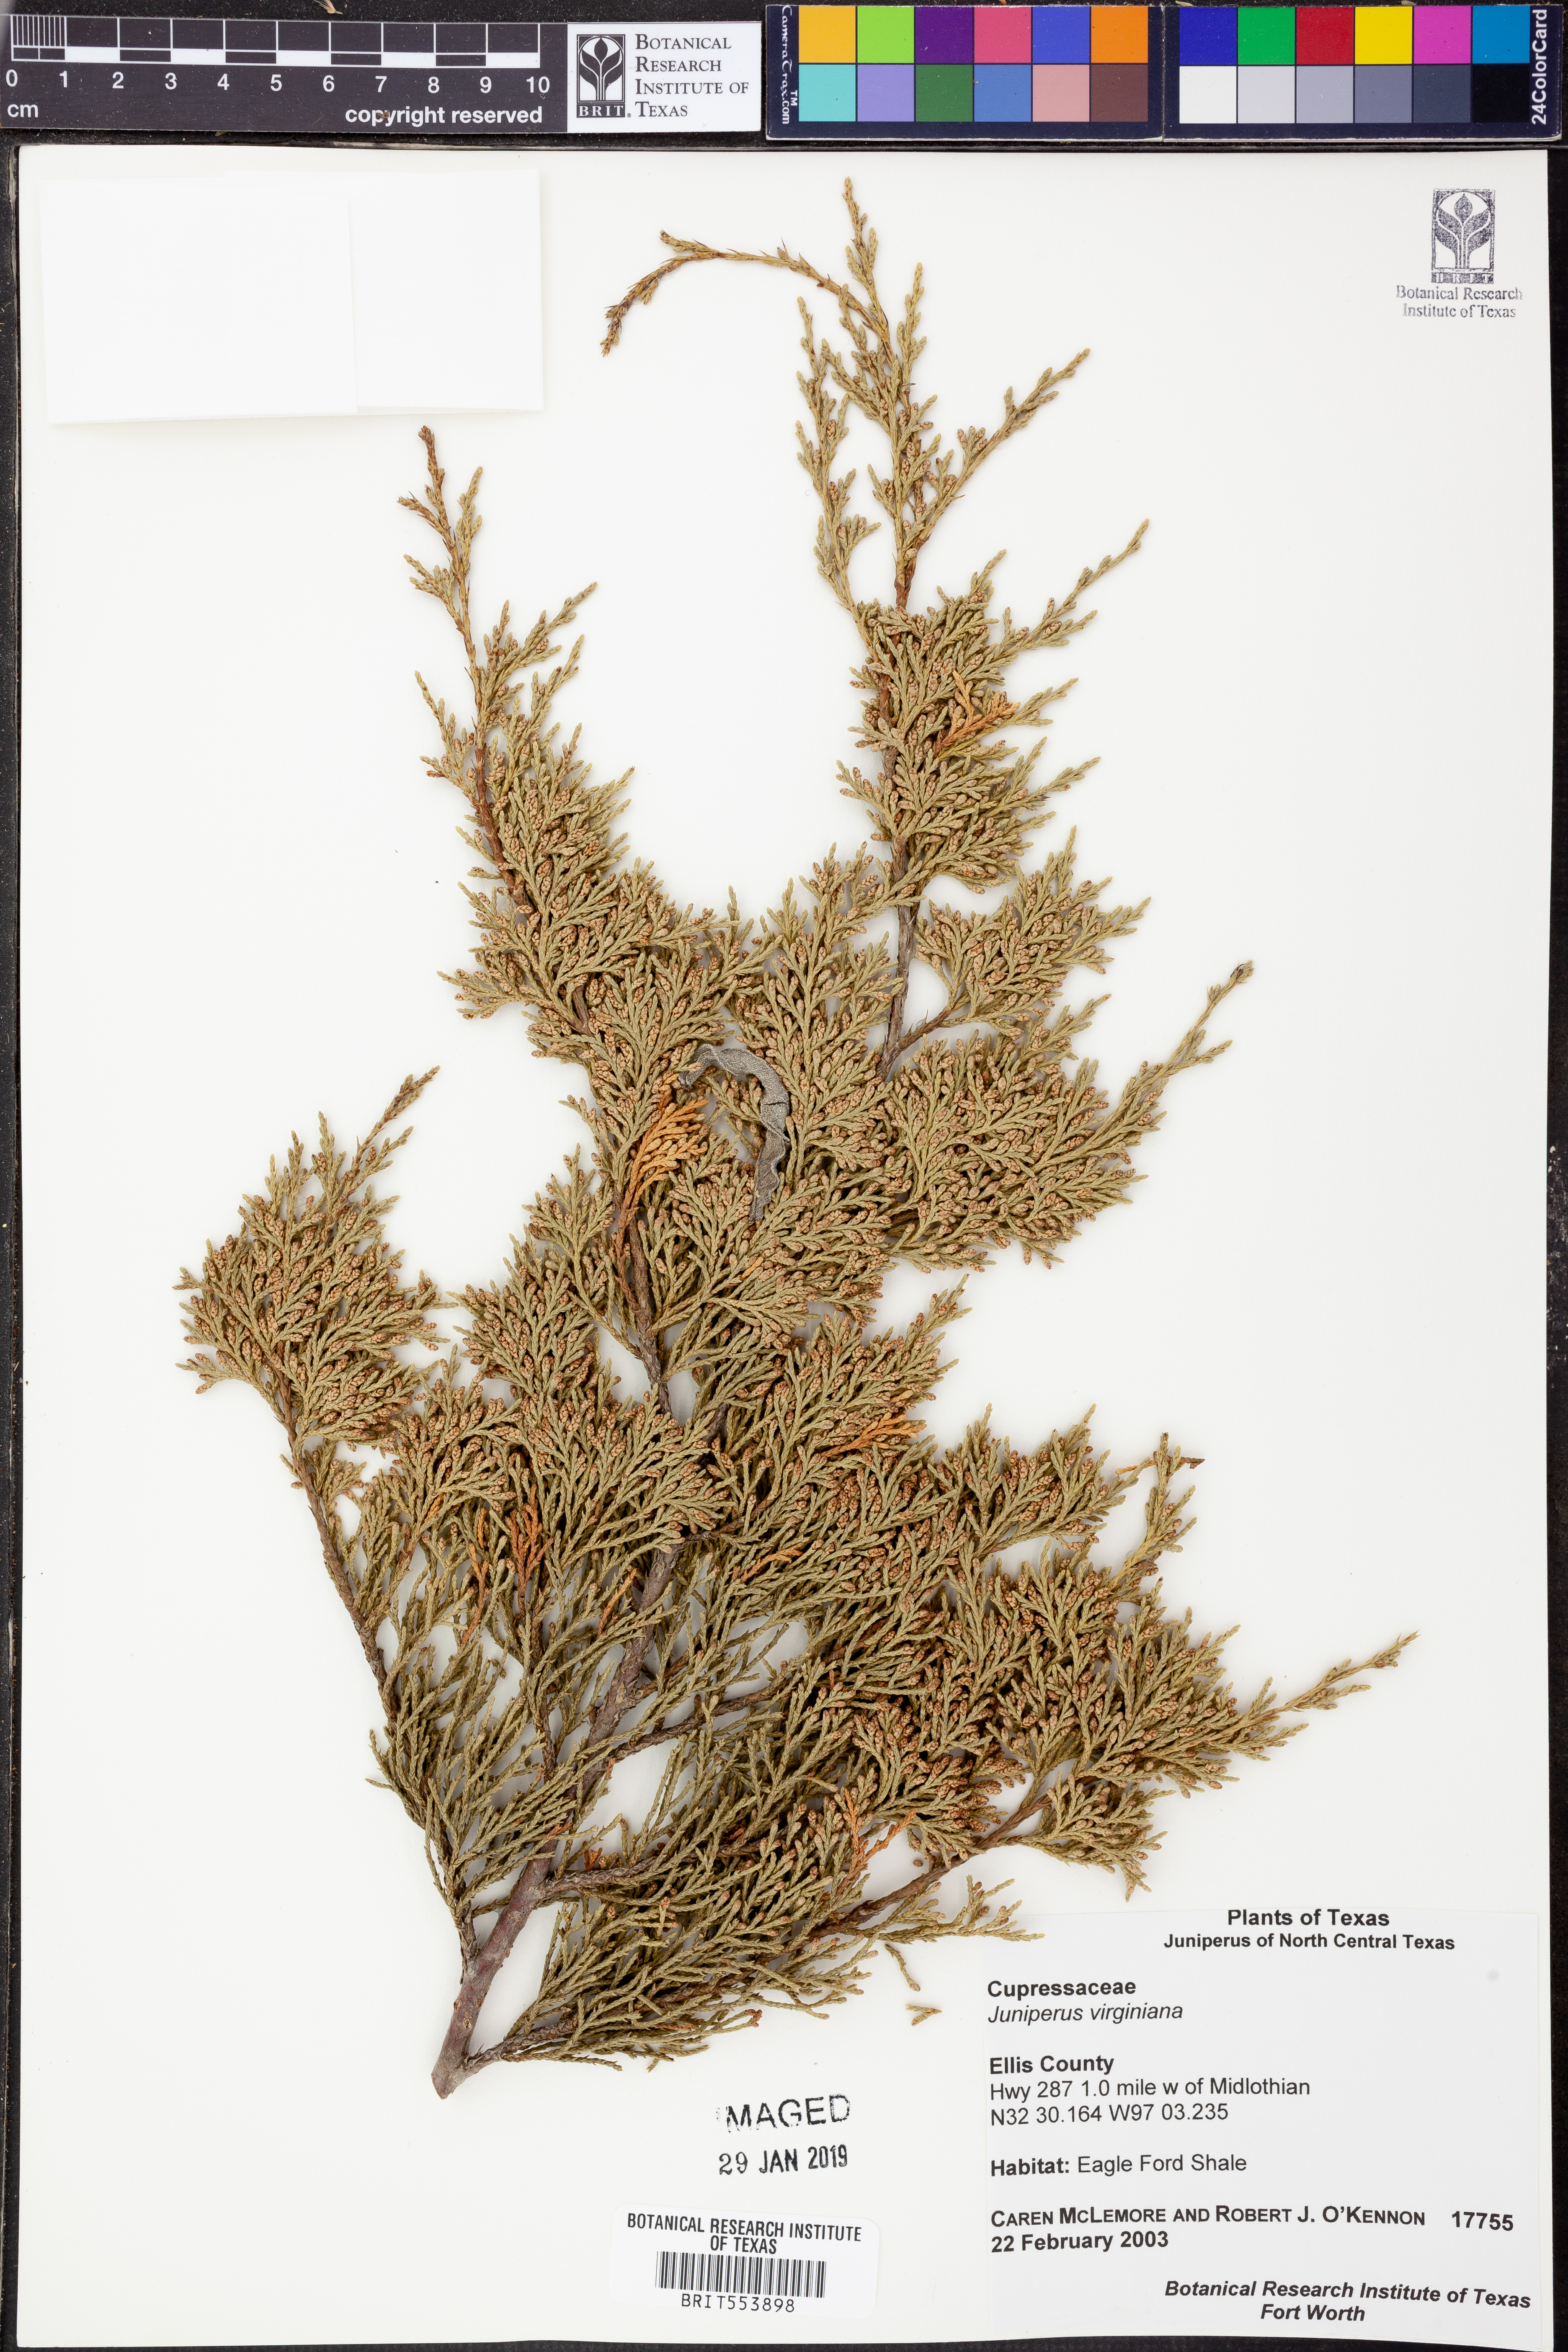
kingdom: Plantae
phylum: Tracheophyta
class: Pinopsida
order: Pinales
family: Cupressaceae
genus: Juniperus
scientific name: Juniperus virginiana
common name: Red juniper
